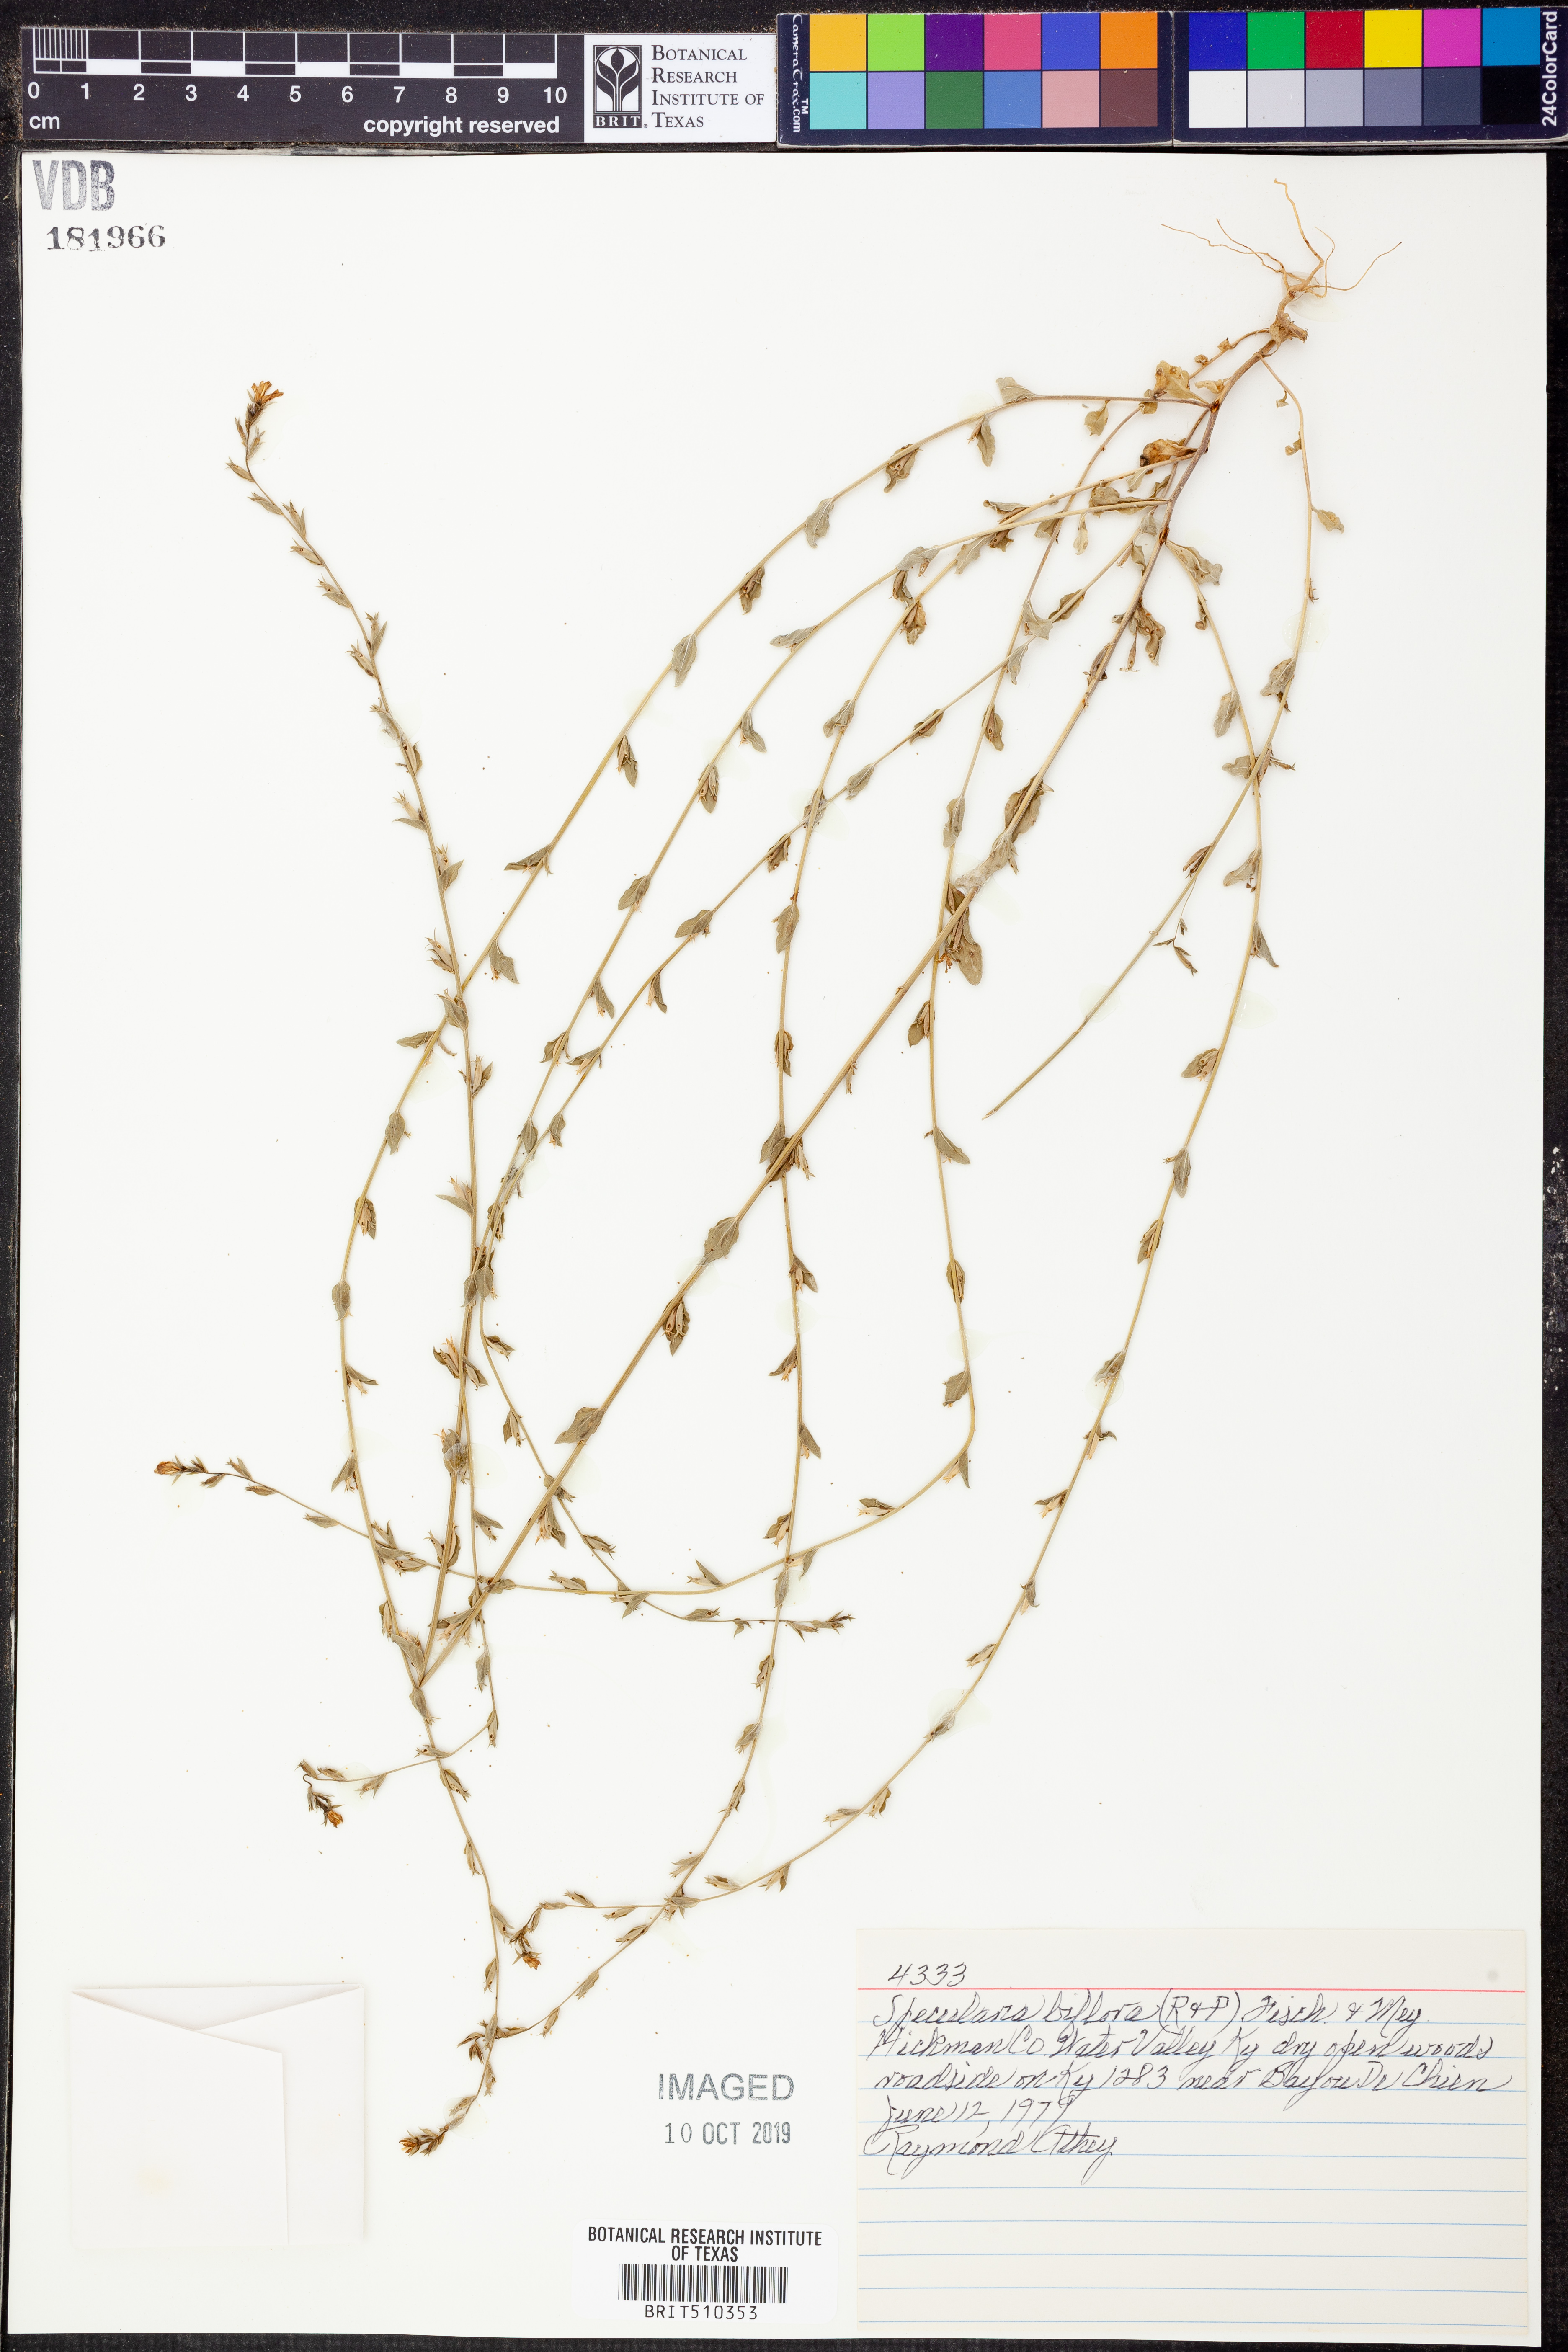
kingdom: Plantae
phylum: Tracheophyta
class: Magnoliopsida
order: Asterales
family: Campanulaceae
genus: Triodanis
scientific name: Triodanis perfoliata
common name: Clasping venus' looking-glass
